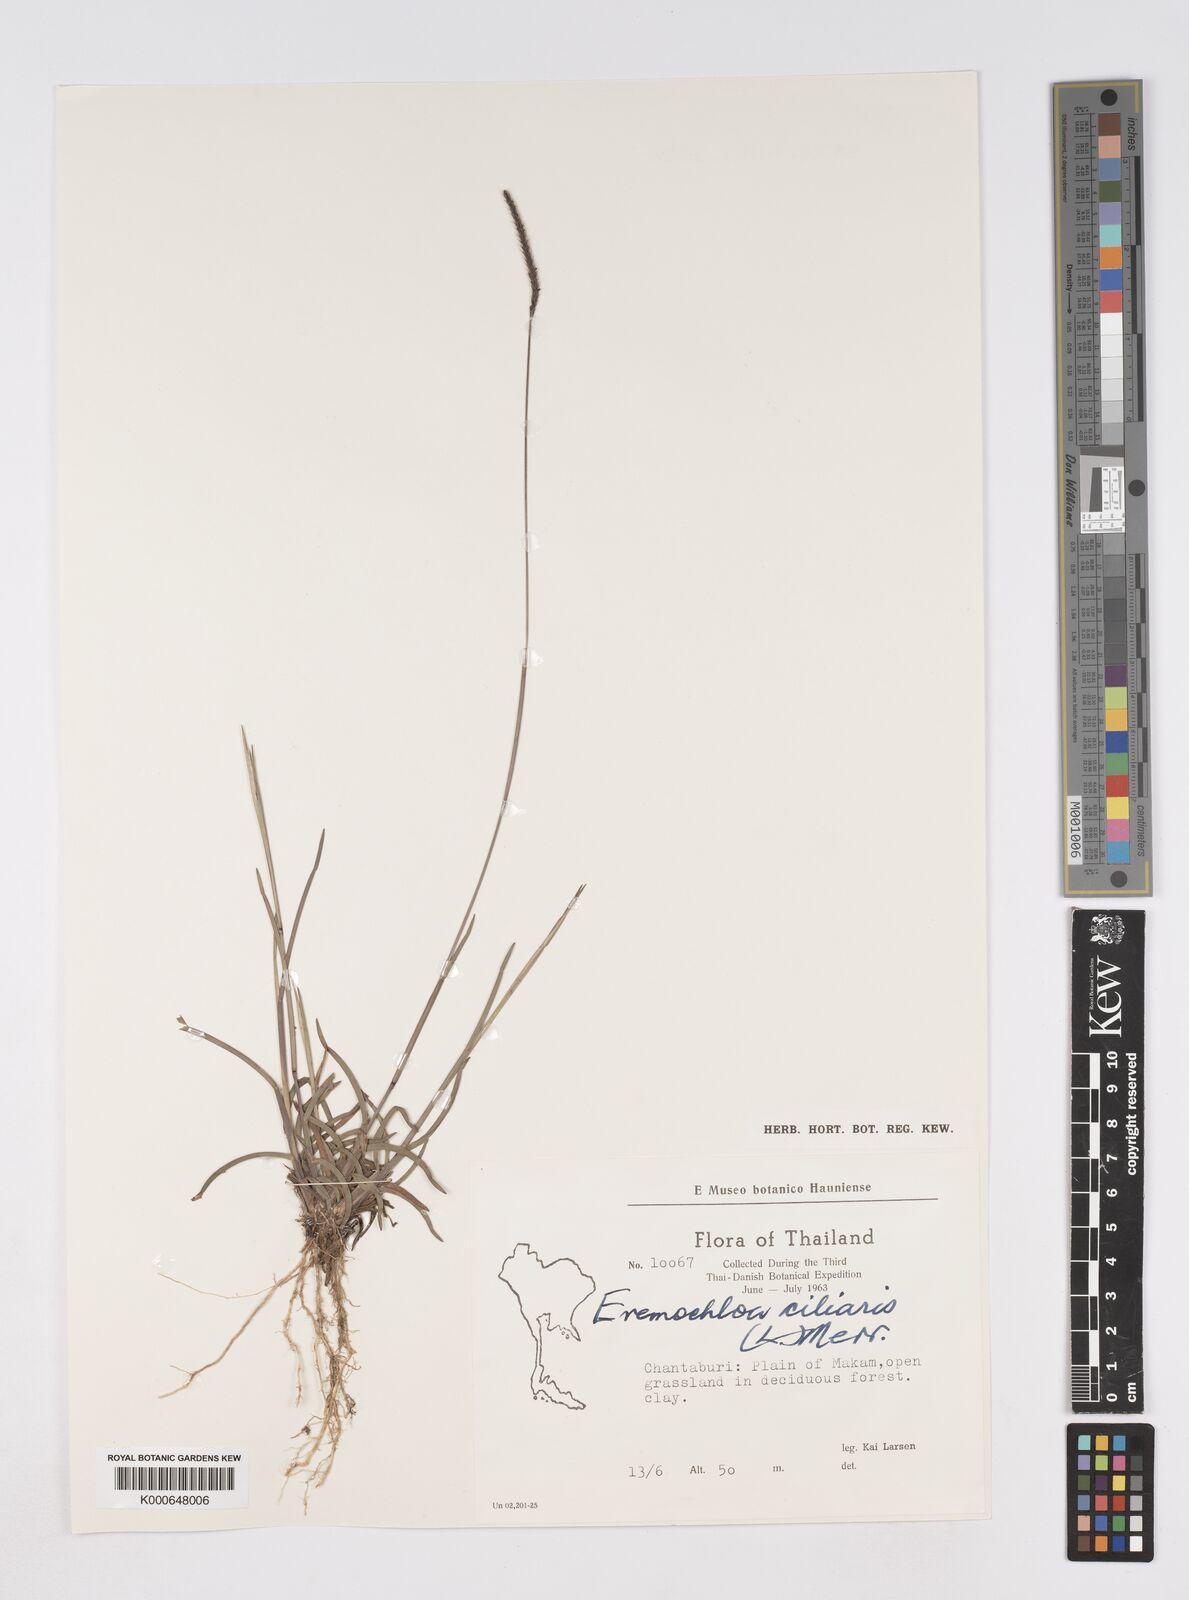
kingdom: Plantae
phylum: Tracheophyta
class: Liliopsida
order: Poales
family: Poaceae
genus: Eremochloa
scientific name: Eremochloa ciliaris
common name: Fringed centipede grass
